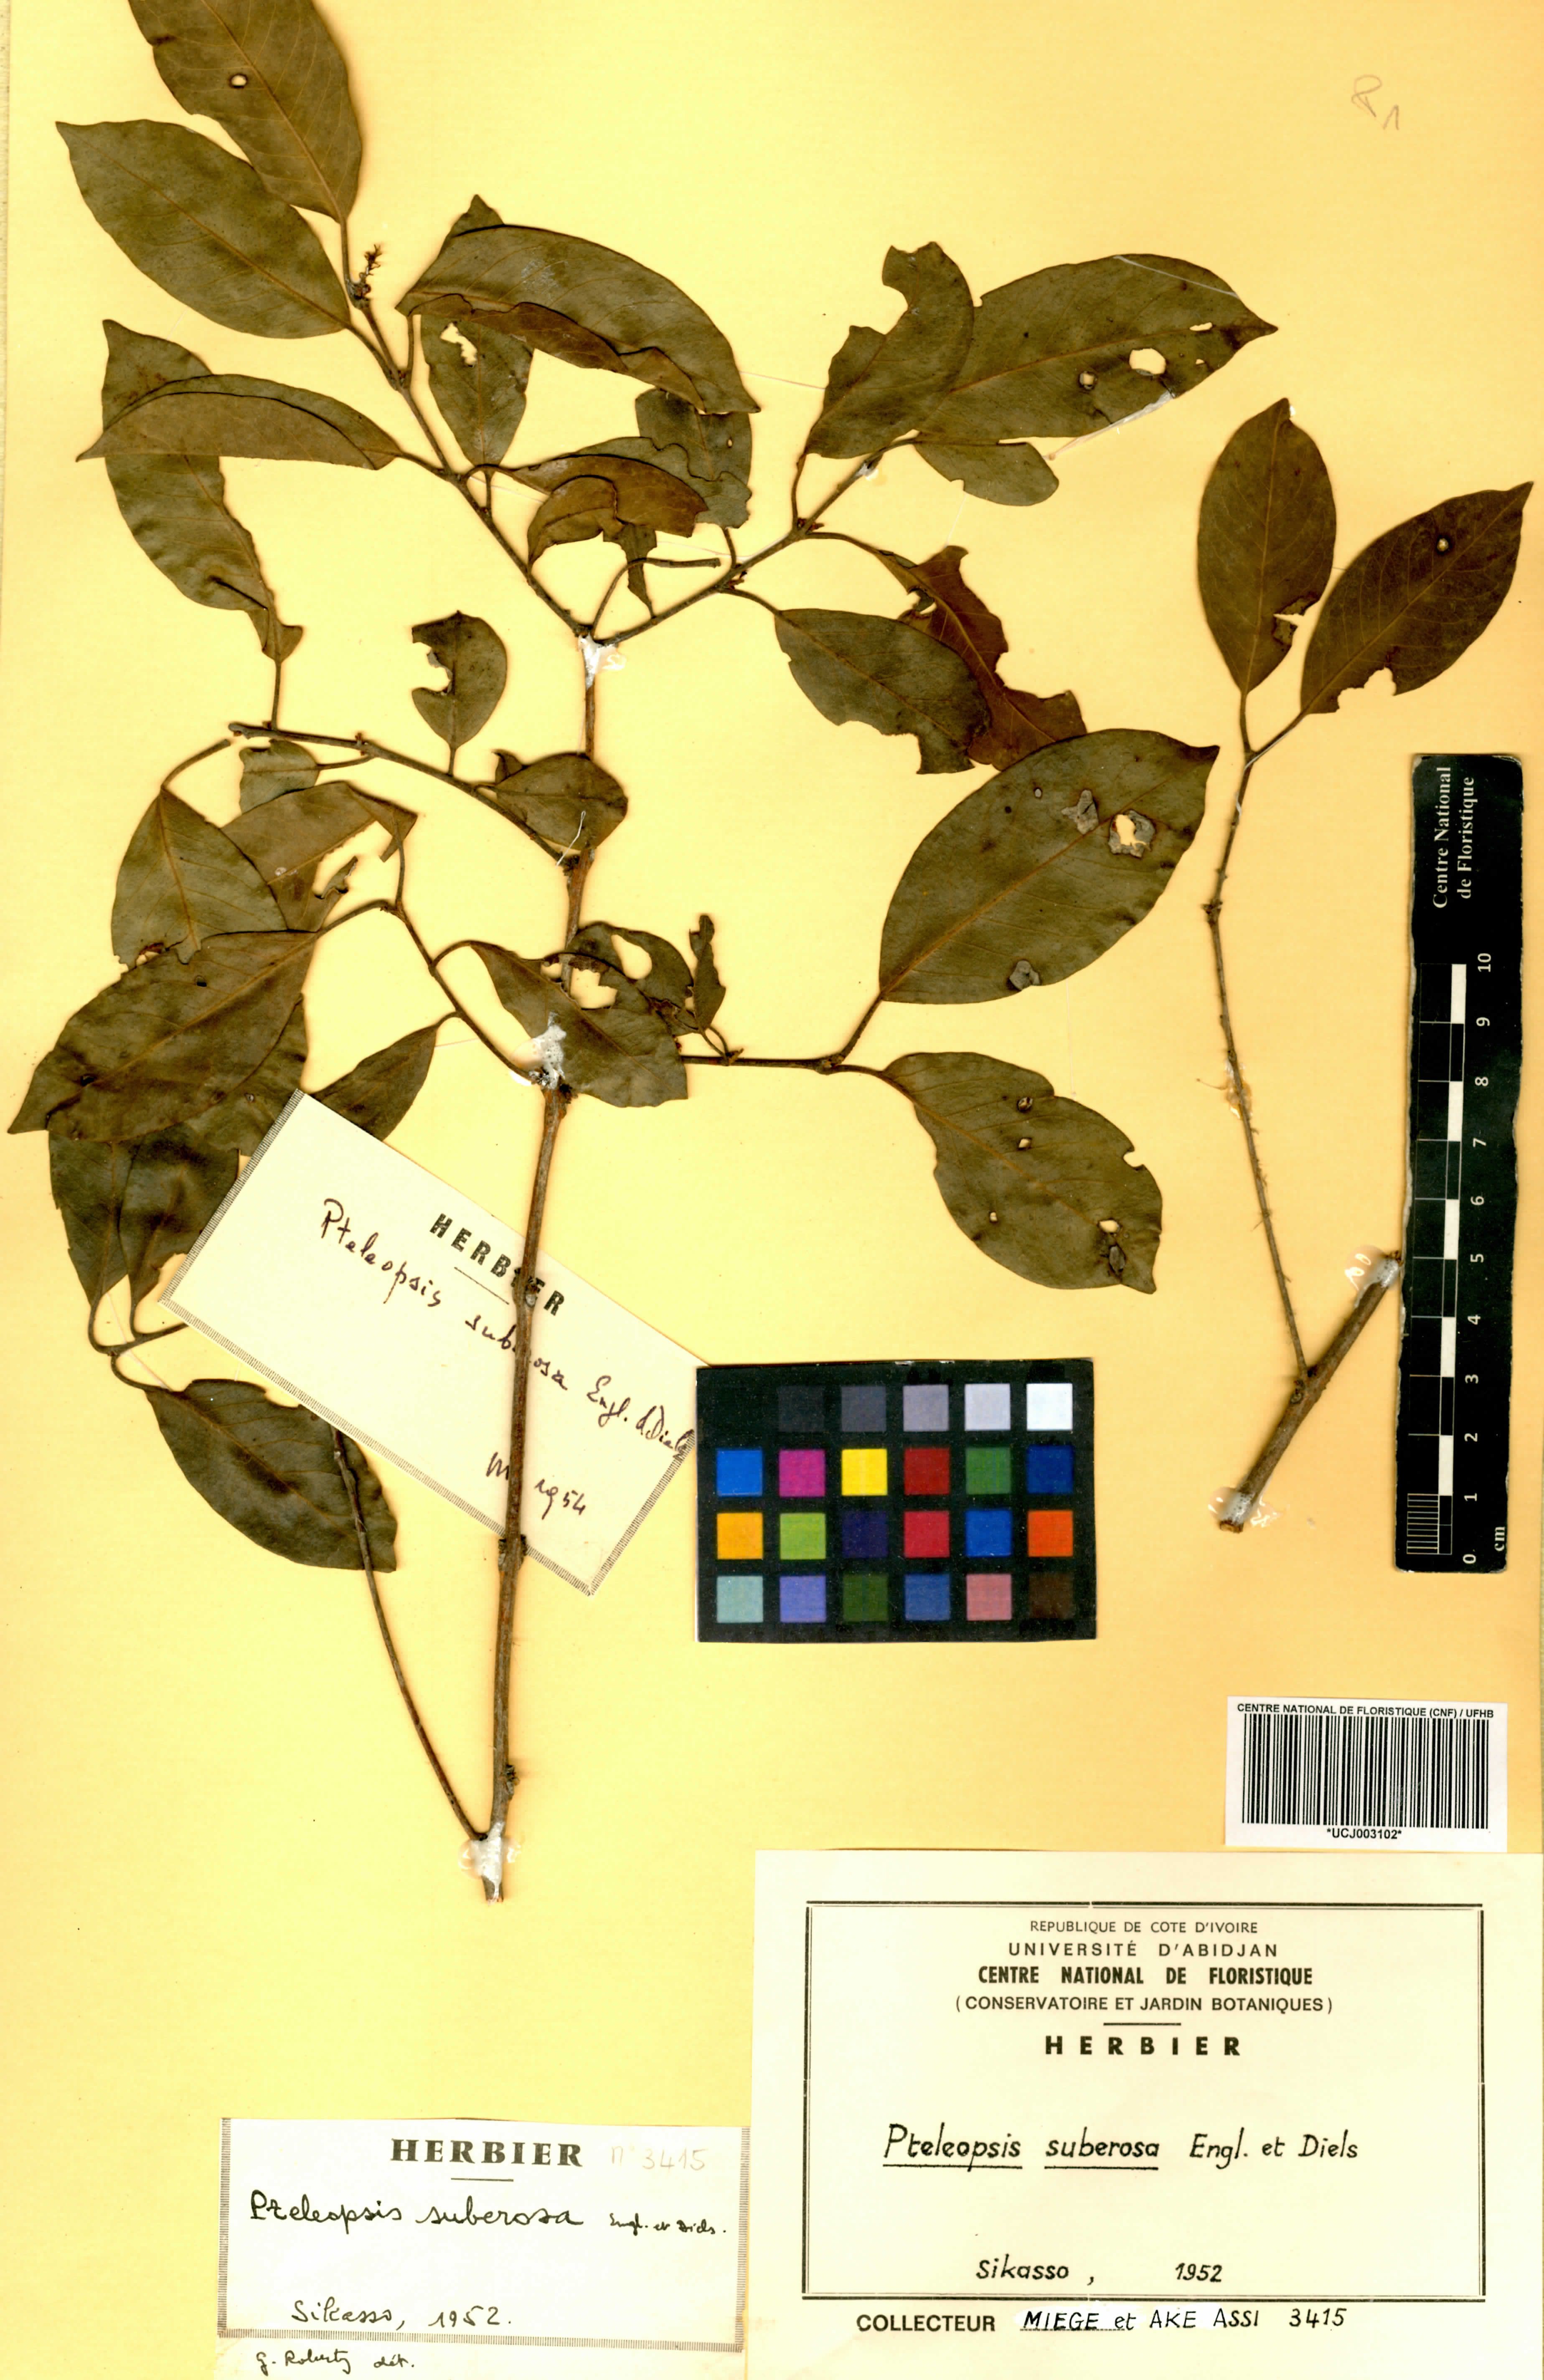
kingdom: Plantae
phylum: Tracheophyta
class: Magnoliopsida
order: Myrtales
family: Combretaceae
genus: Terminalia
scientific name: Terminalia engleri
